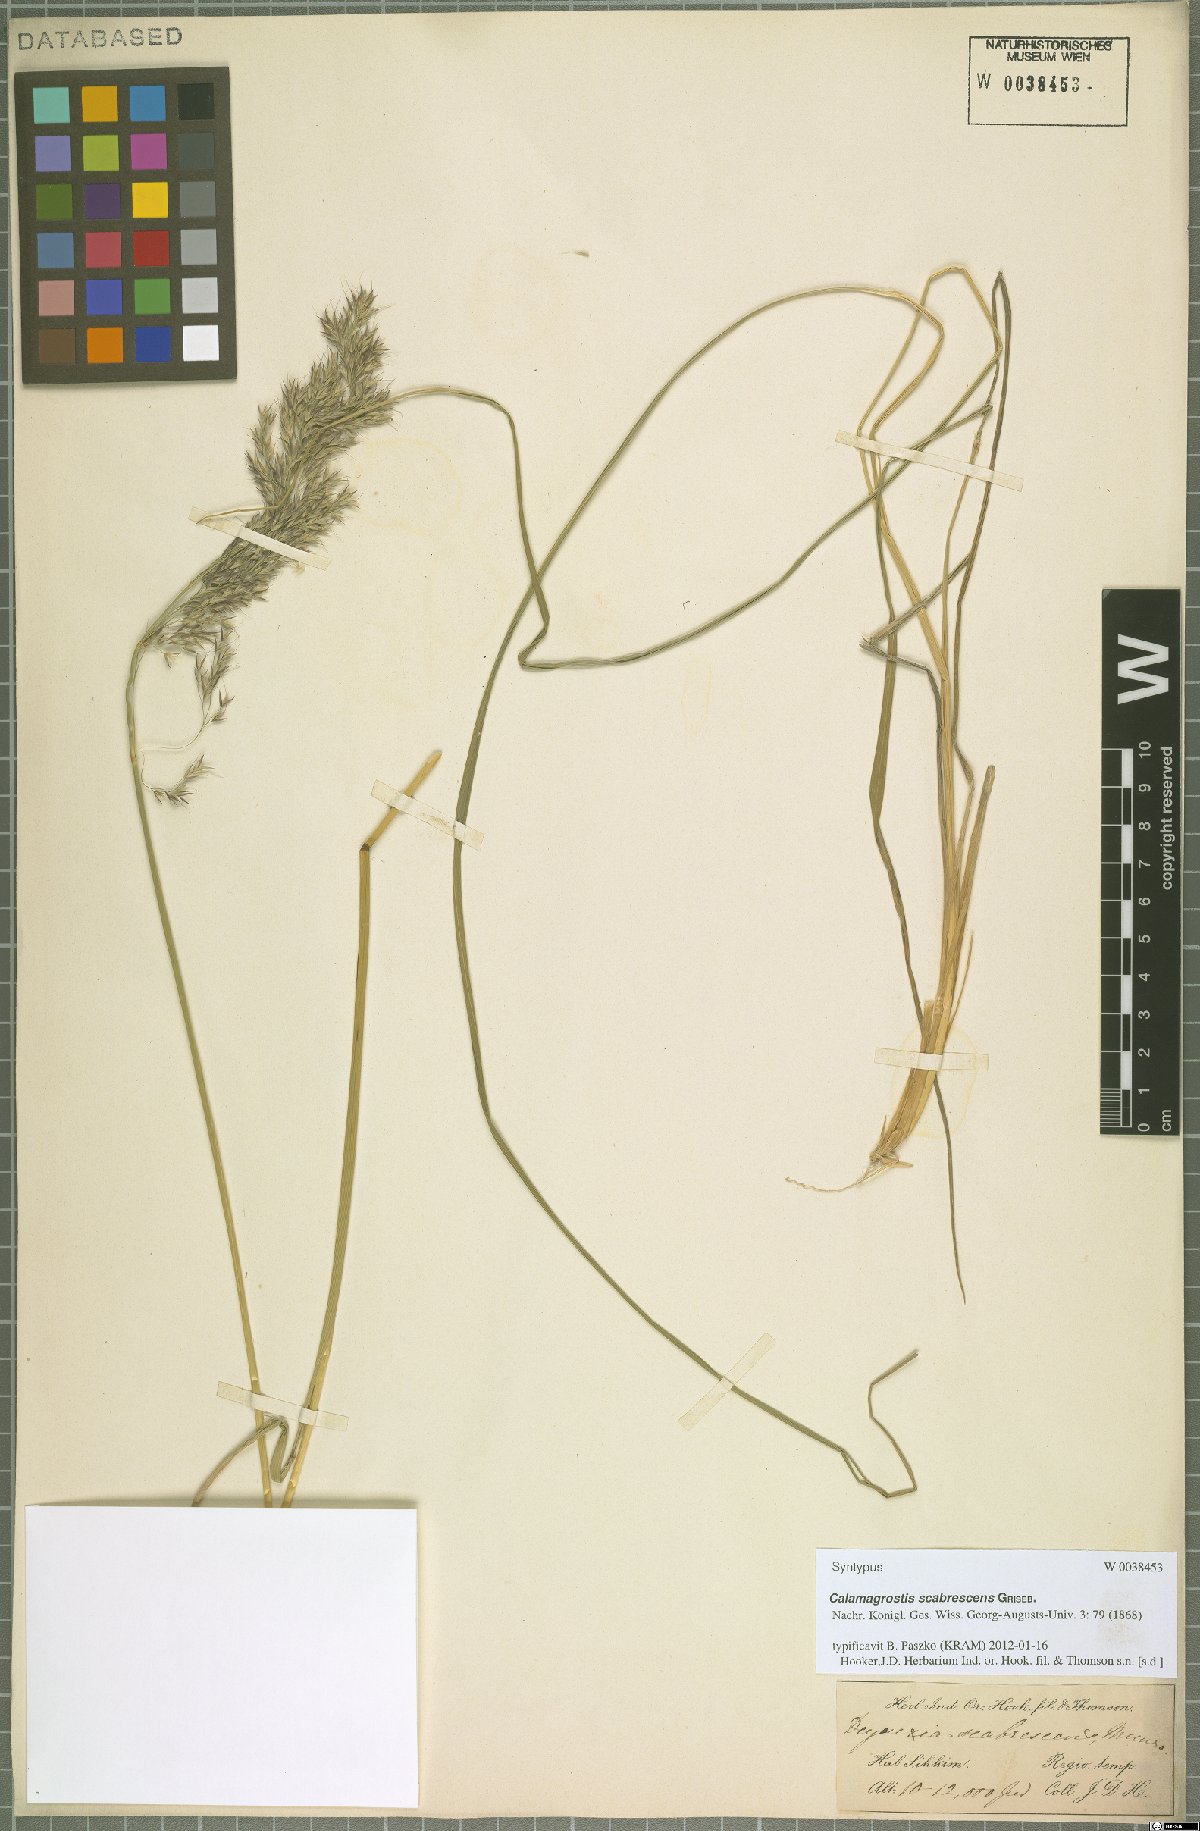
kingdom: Plantae
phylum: Tracheophyta
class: Liliopsida
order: Poales
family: Poaceae
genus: Calamagrostis
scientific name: Calamagrostis scabrescens
